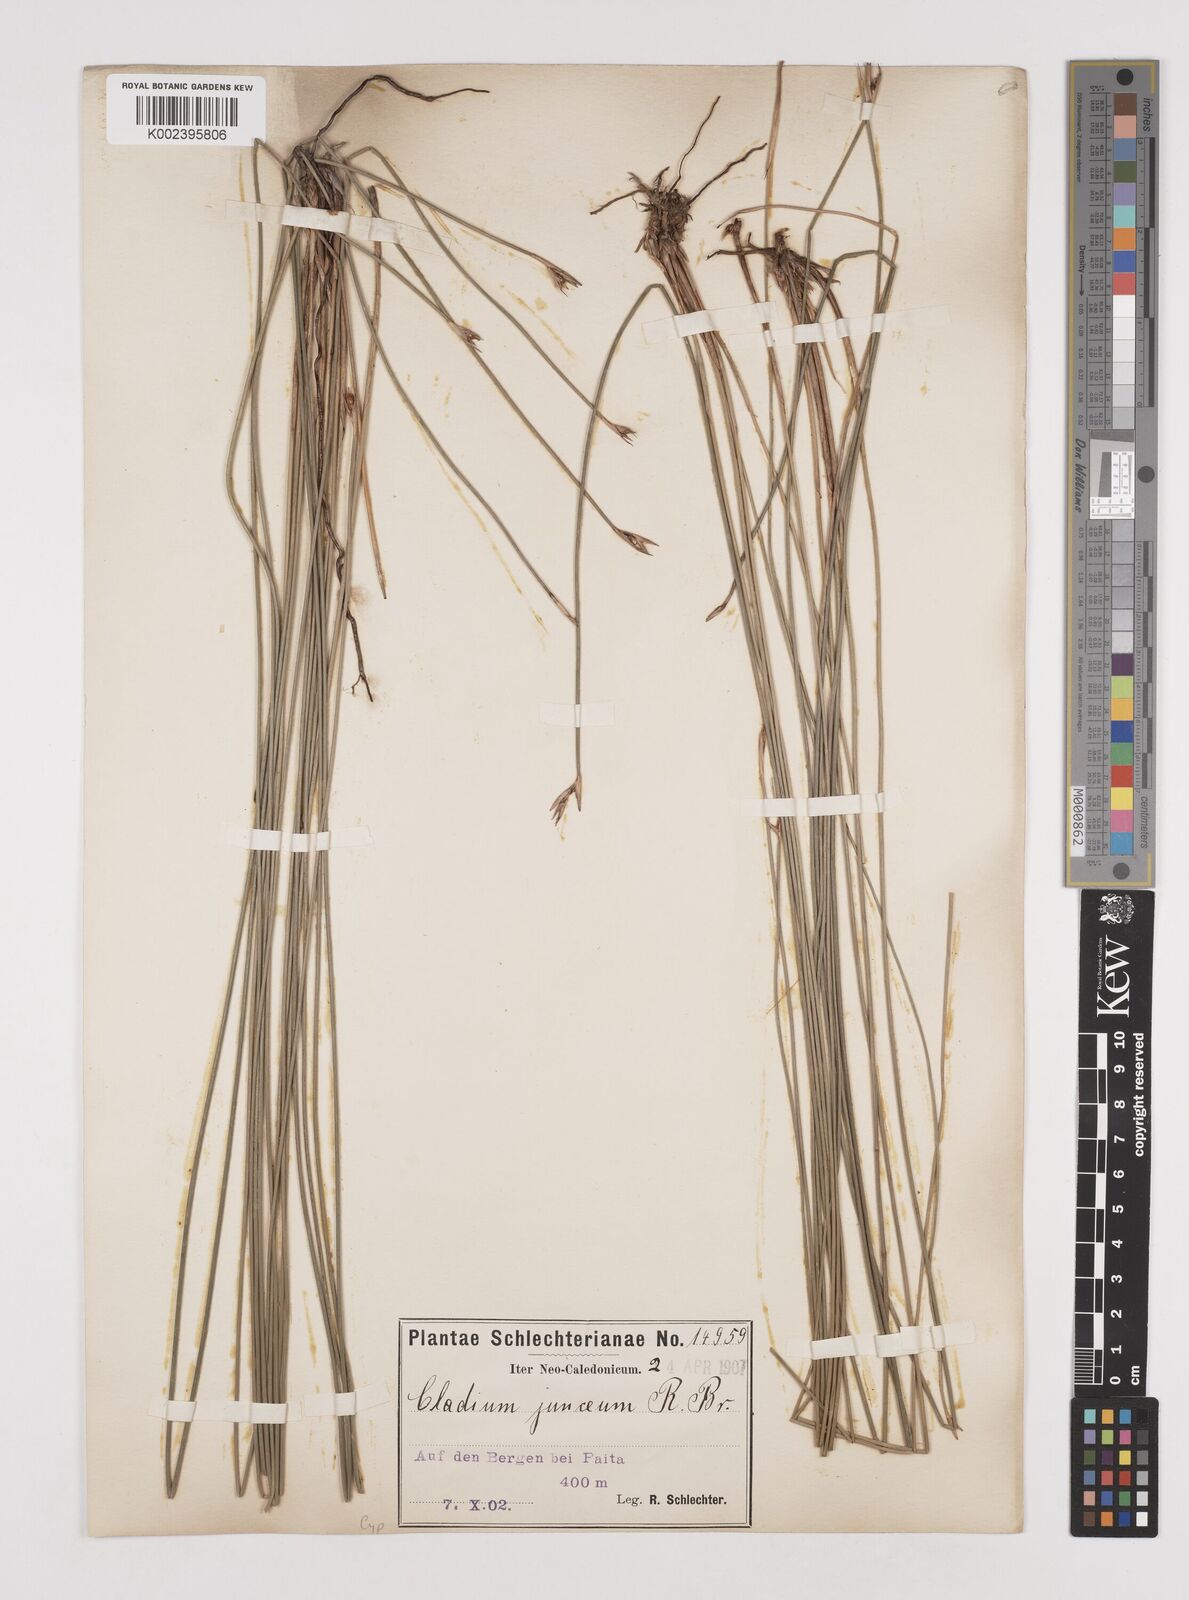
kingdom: Plantae
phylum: Tracheophyta
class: Liliopsida
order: Poales
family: Cyperaceae
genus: Machaerina
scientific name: Machaerina juncea
